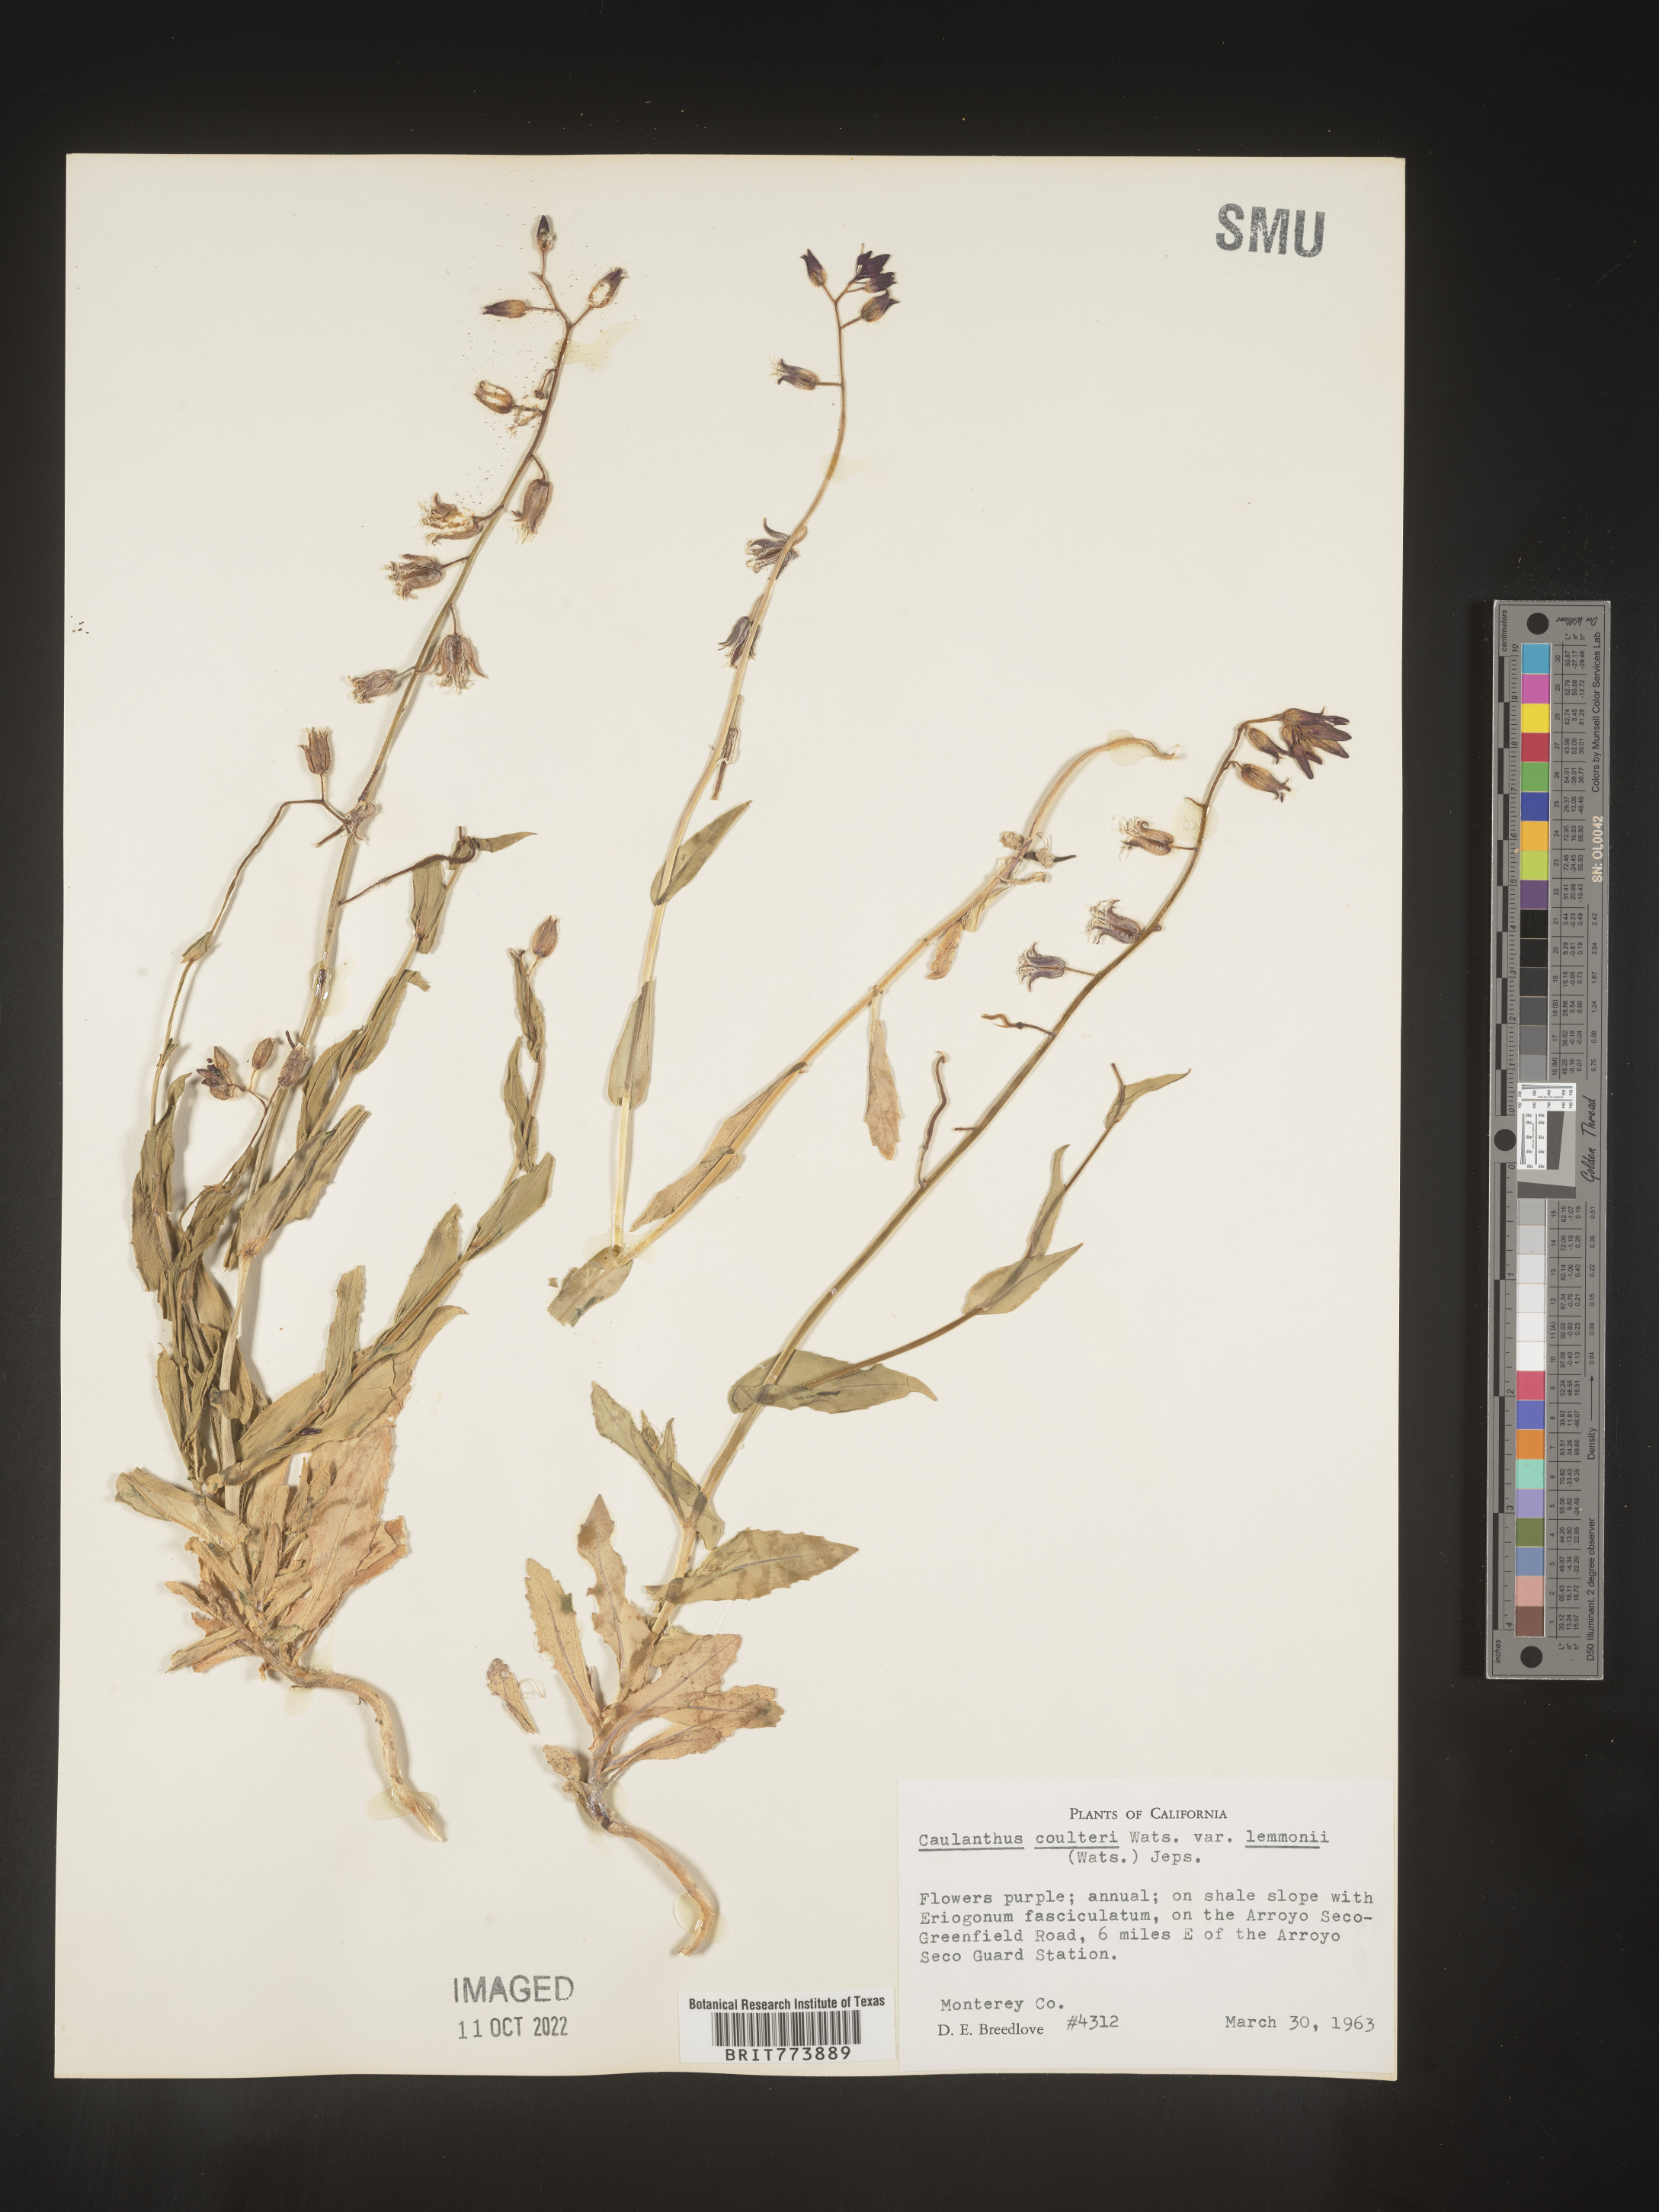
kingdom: Plantae
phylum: Tracheophyta
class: Magnoliopsida
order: Brassicales
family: Brassicaceae
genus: Streptanthus
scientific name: Streptanthus
